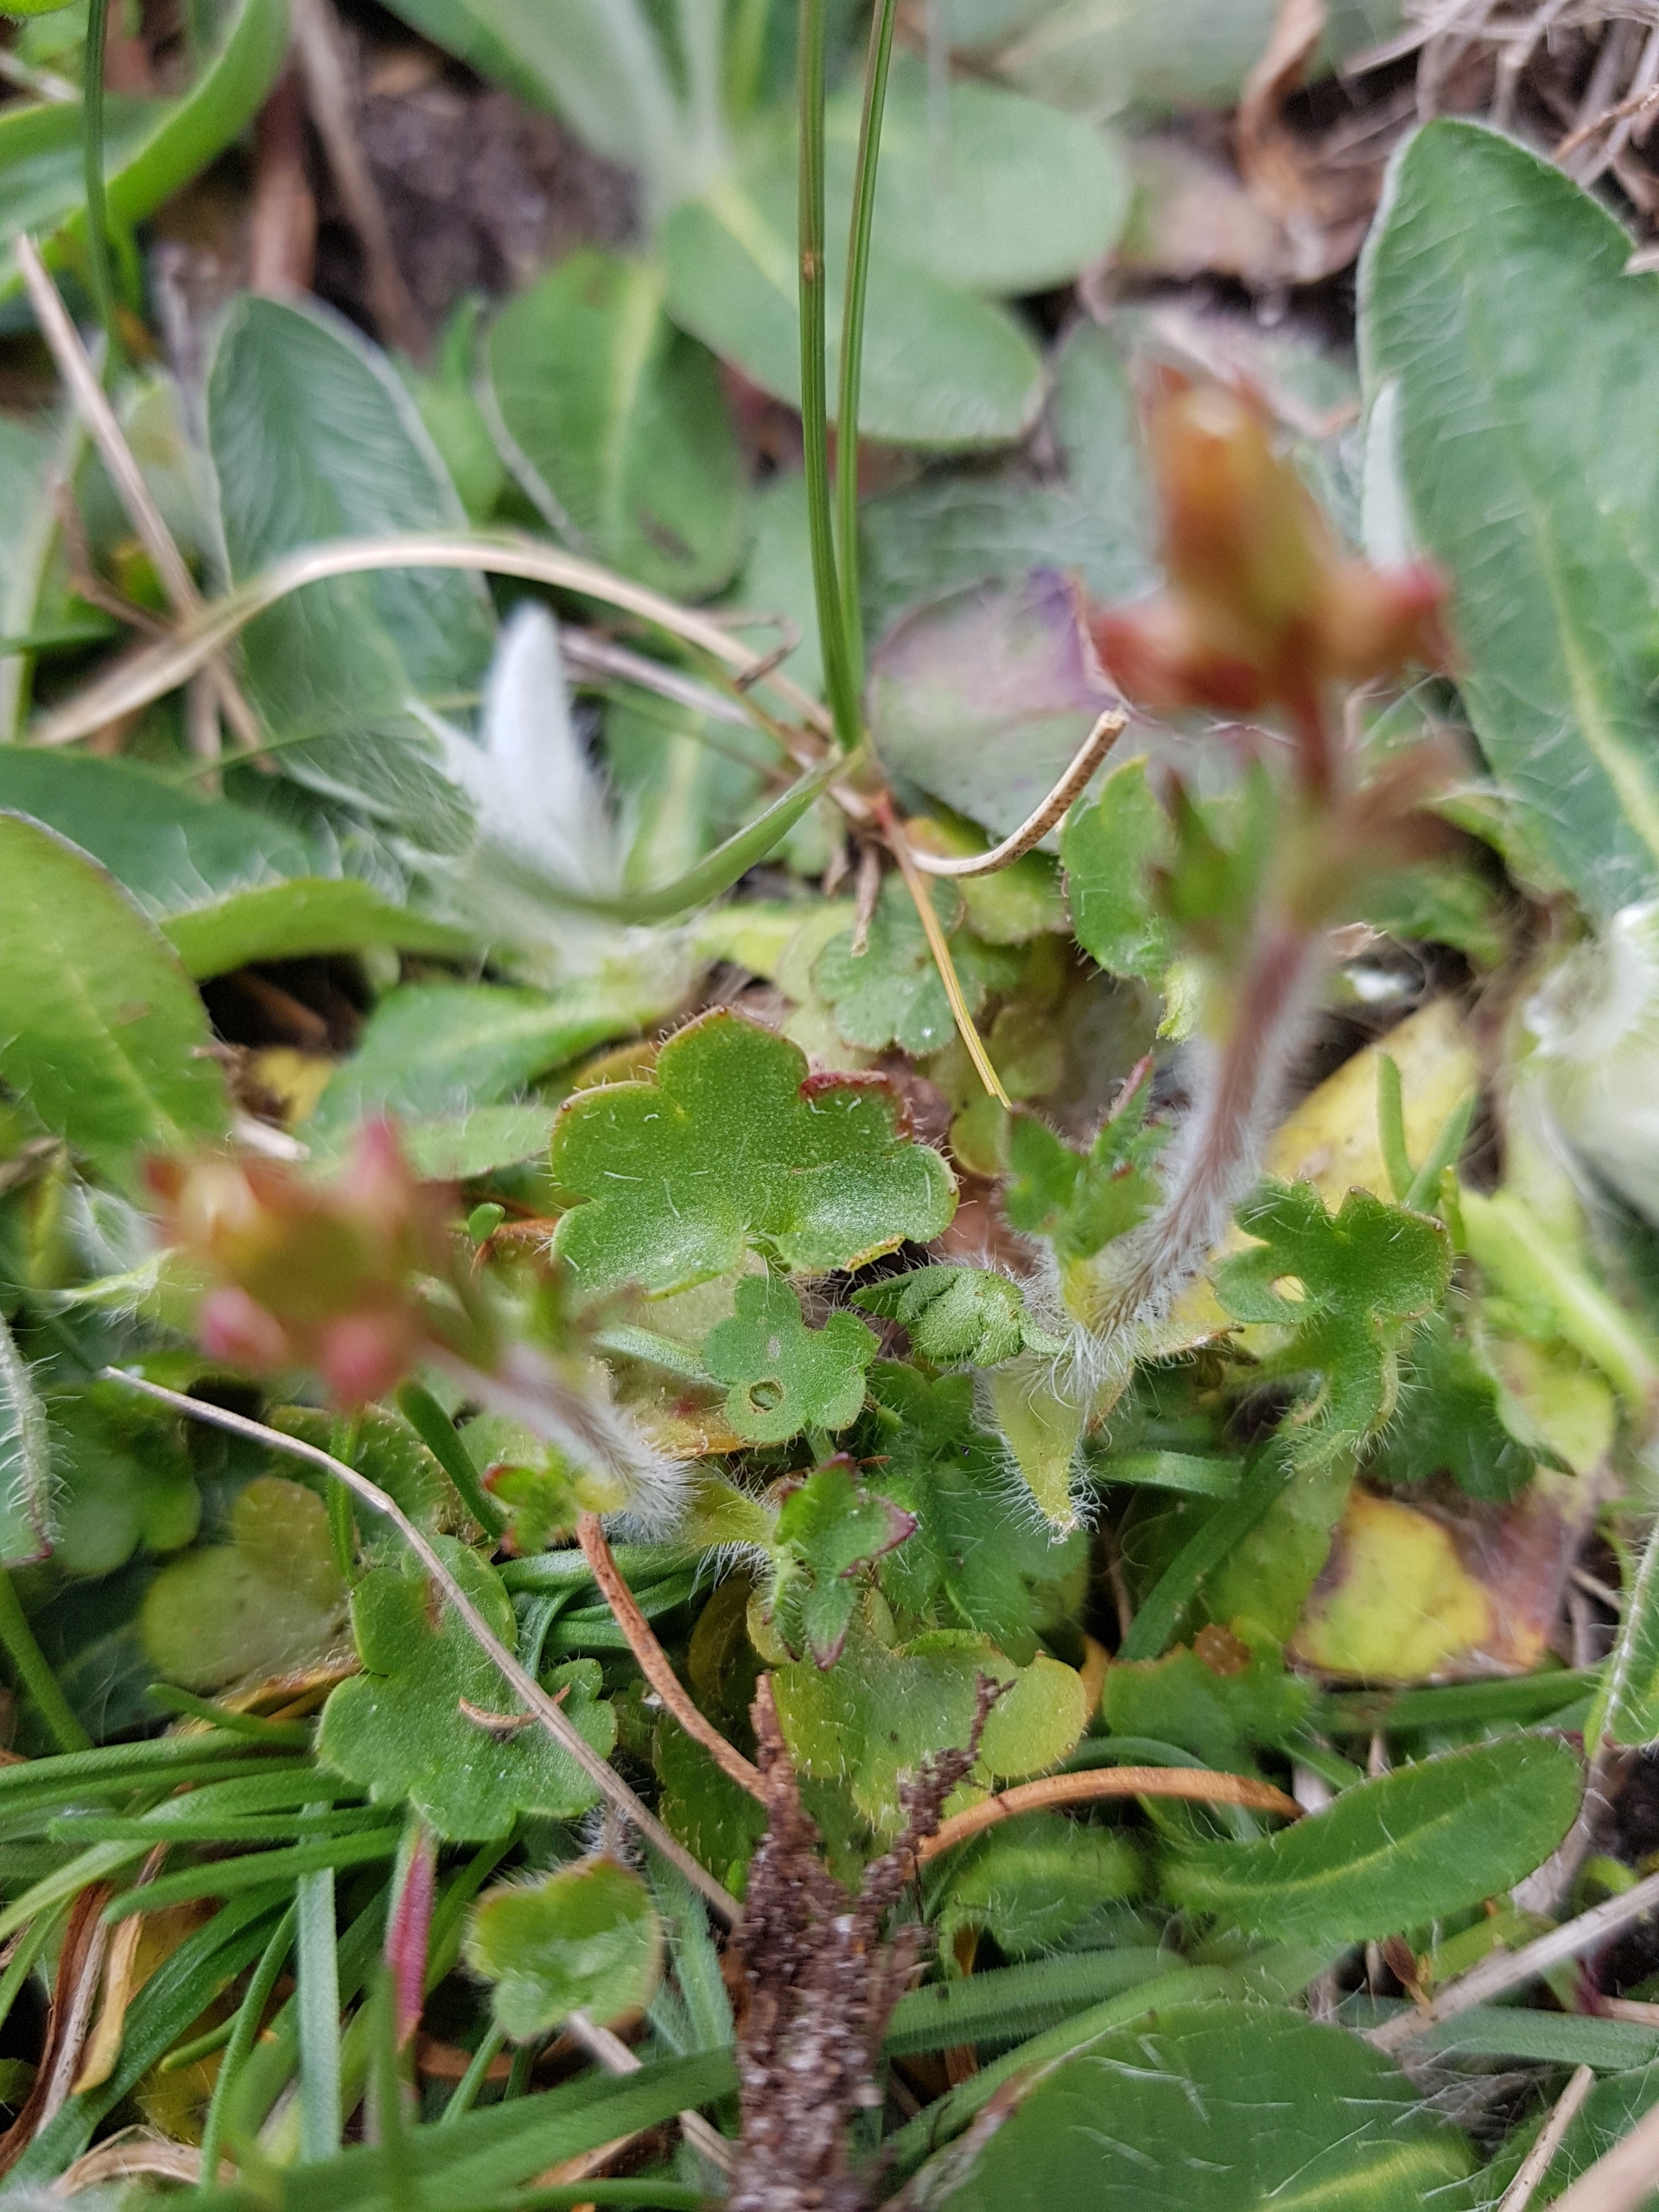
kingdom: Plantae
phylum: Tracheophyta
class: Magnoliopsida
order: Saxifragales
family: Saxifragaceae
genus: Saxifraga
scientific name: Saxifraga granulata
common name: Kornet stenbræk
